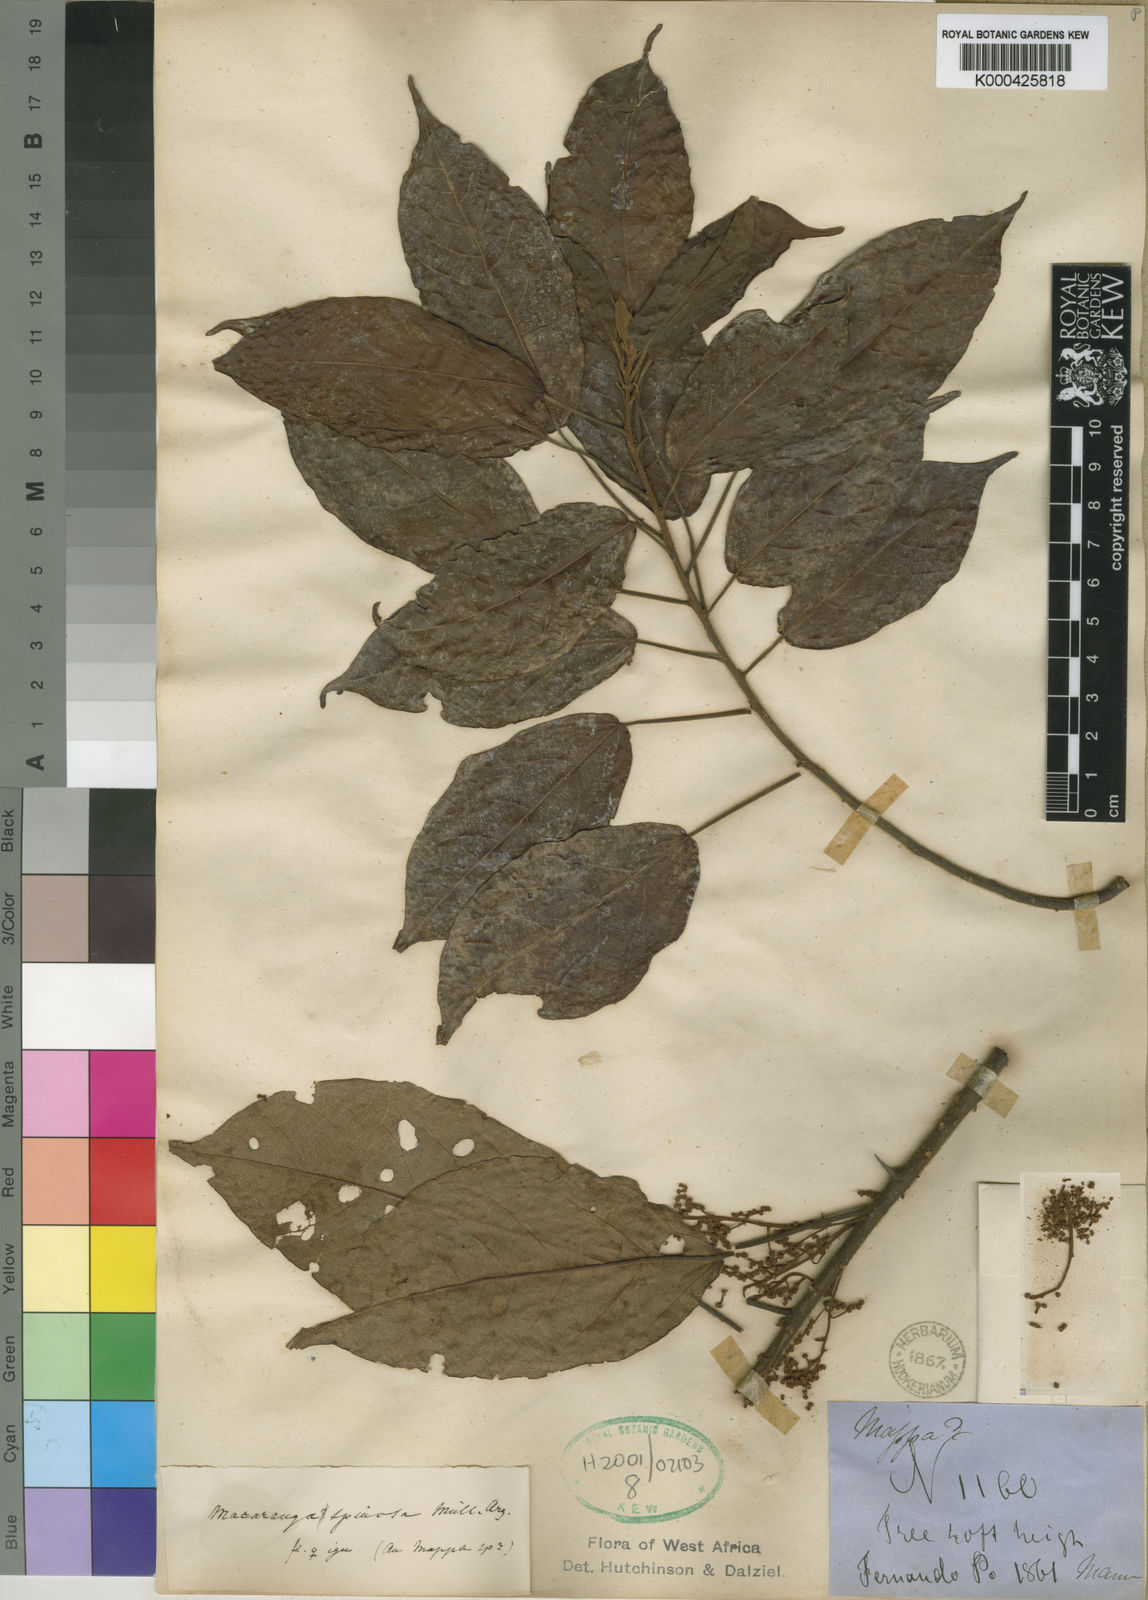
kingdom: Plantae
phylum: Tracheophyta
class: Magnoliopsida
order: Malpighiales
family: Euphorbiaceae
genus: Macaranga
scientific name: Macaranga
